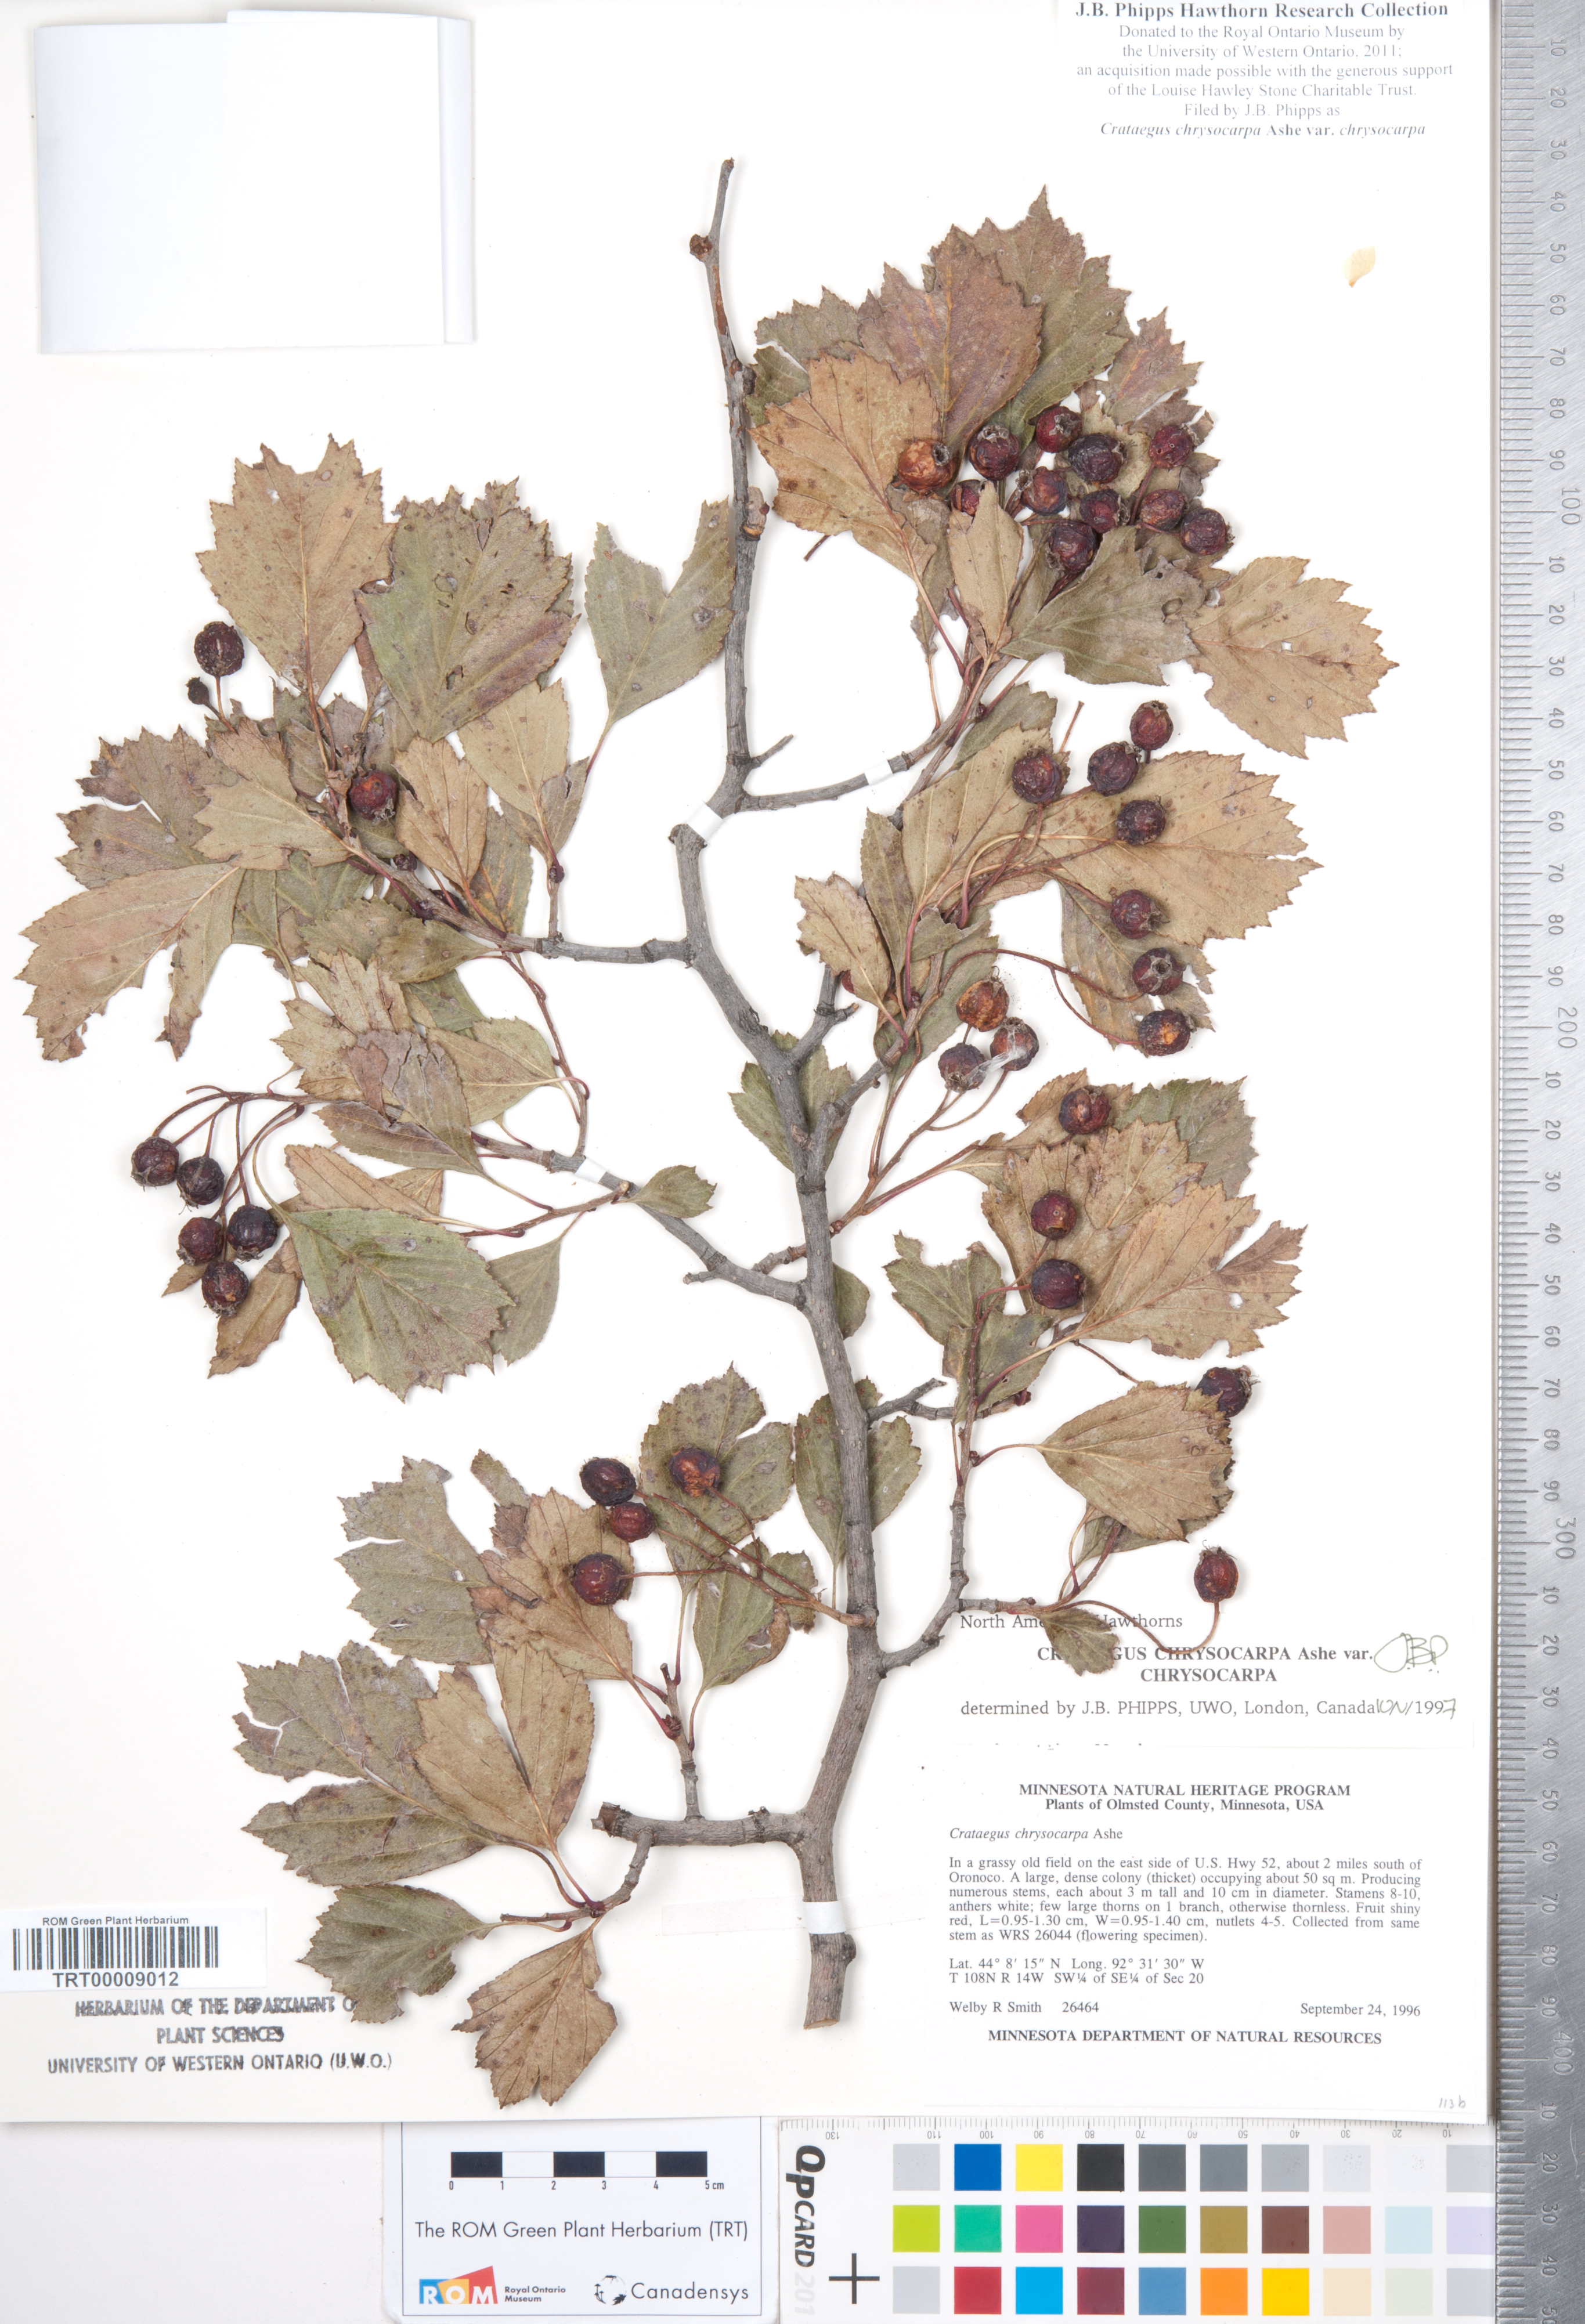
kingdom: Plantae
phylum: Tracheophyta
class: Magnoliopsida
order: Rosales
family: Rosaceae
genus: Crataegus
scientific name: Crataegus chrysocarpa
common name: Fire-berry hawthorn
